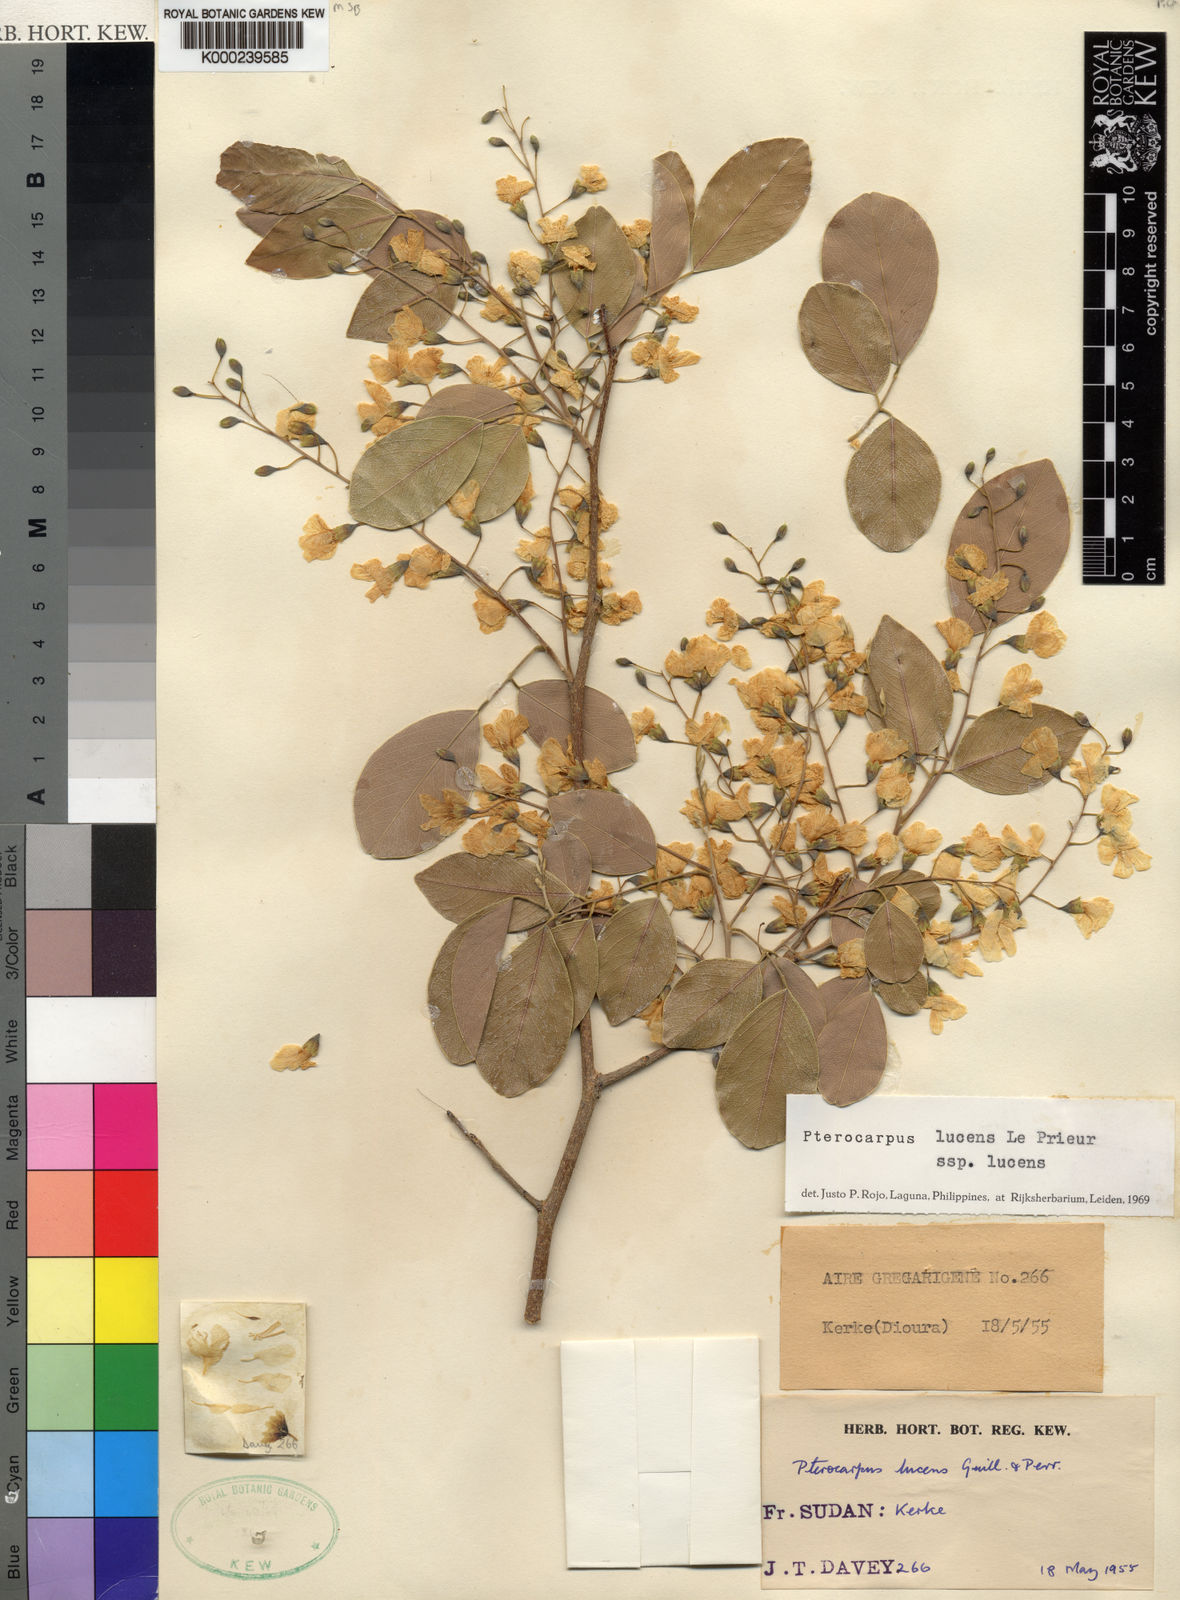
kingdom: Plantae
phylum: Tracheophyta
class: Magnoliopsida
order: Fabales
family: Fabaceae
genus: Pterocarpus
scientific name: Pterocarpus lucens
